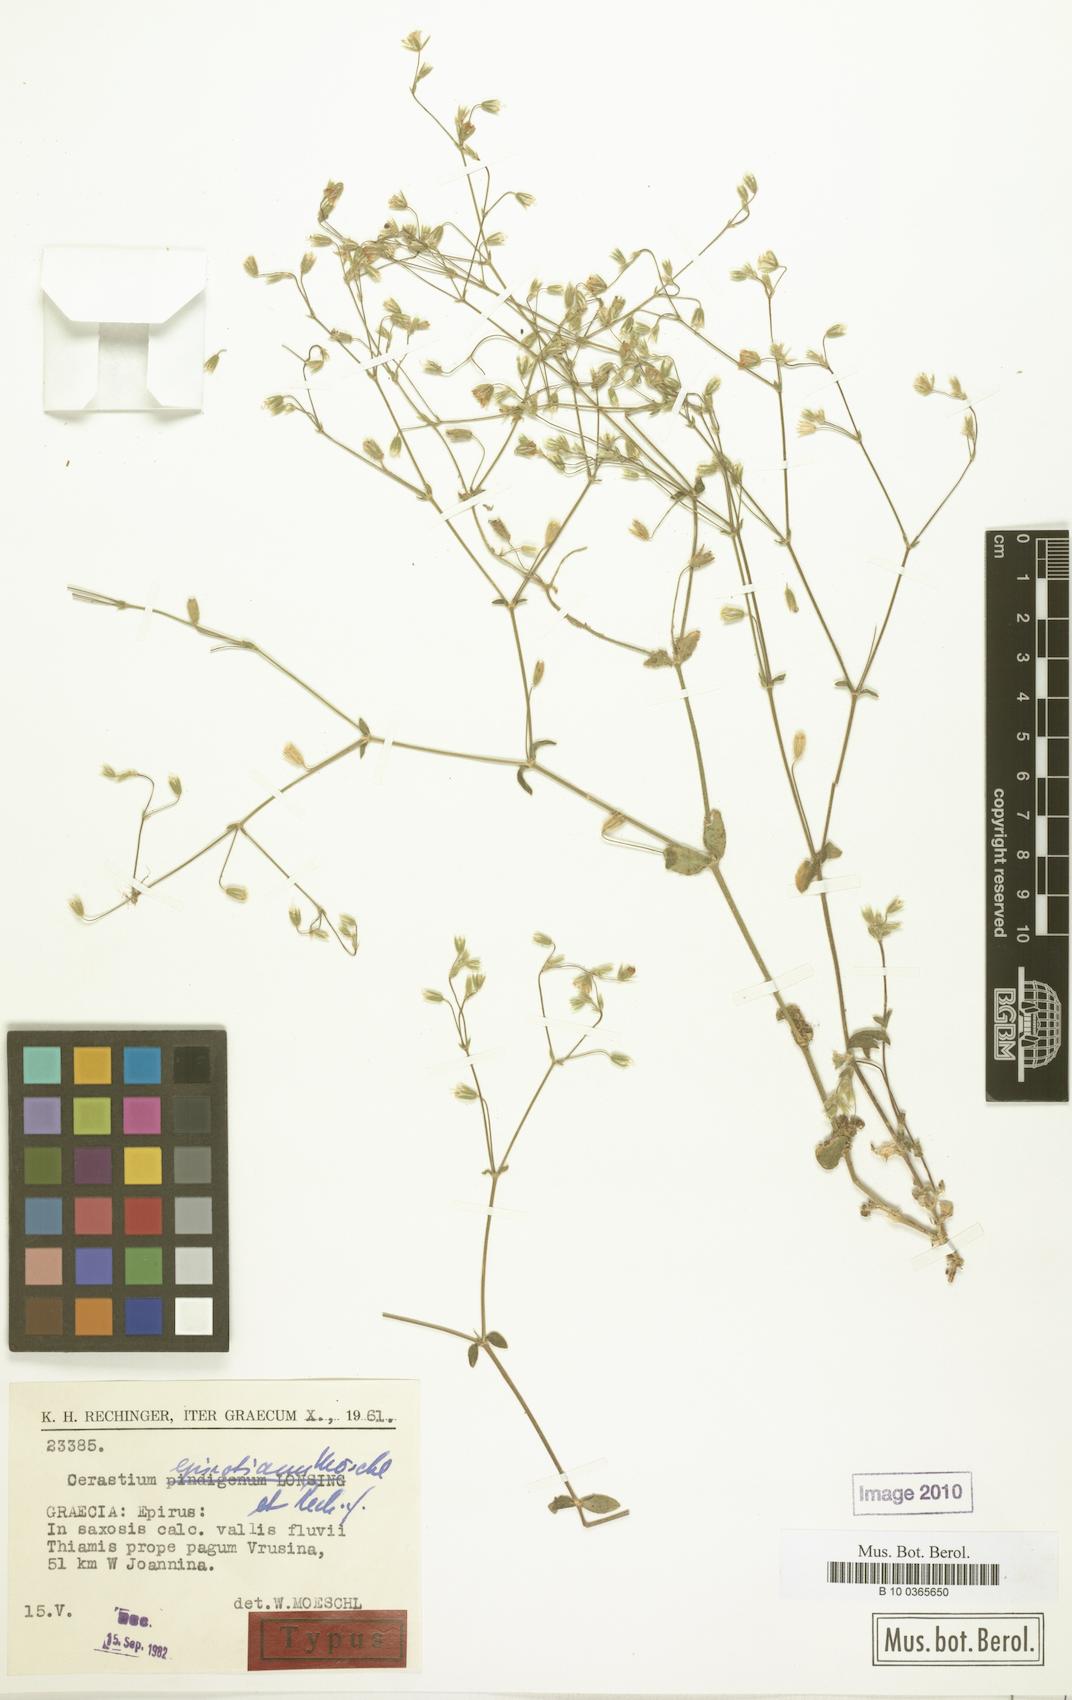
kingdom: Plantae
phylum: Tracheophyta
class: Magnoliopsida
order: Caryophyllales
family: Caryophyllaceae
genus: Cerastium
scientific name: Cerastium tenoreanum
